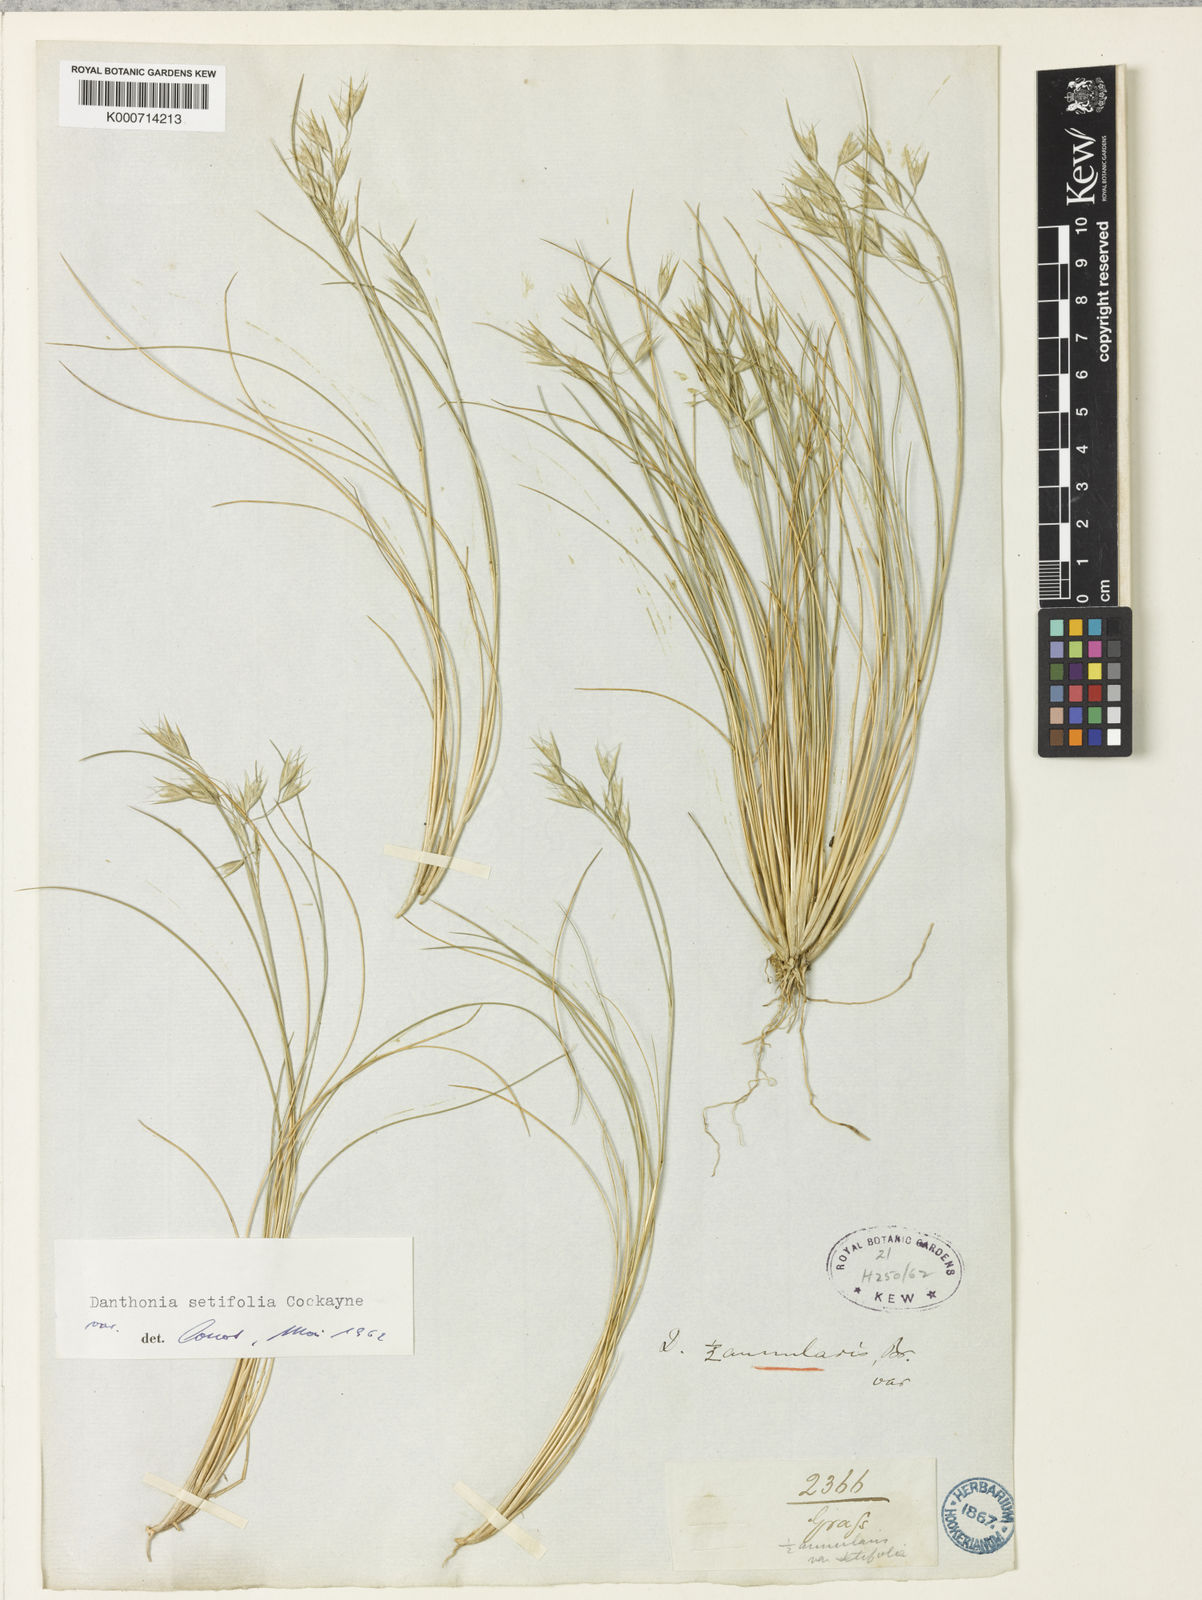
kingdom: Plantae
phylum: Tracheophyta
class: Liliopsida
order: Poales
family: Poaceae
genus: Rytidosperma
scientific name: Rytidosperma setifolium
